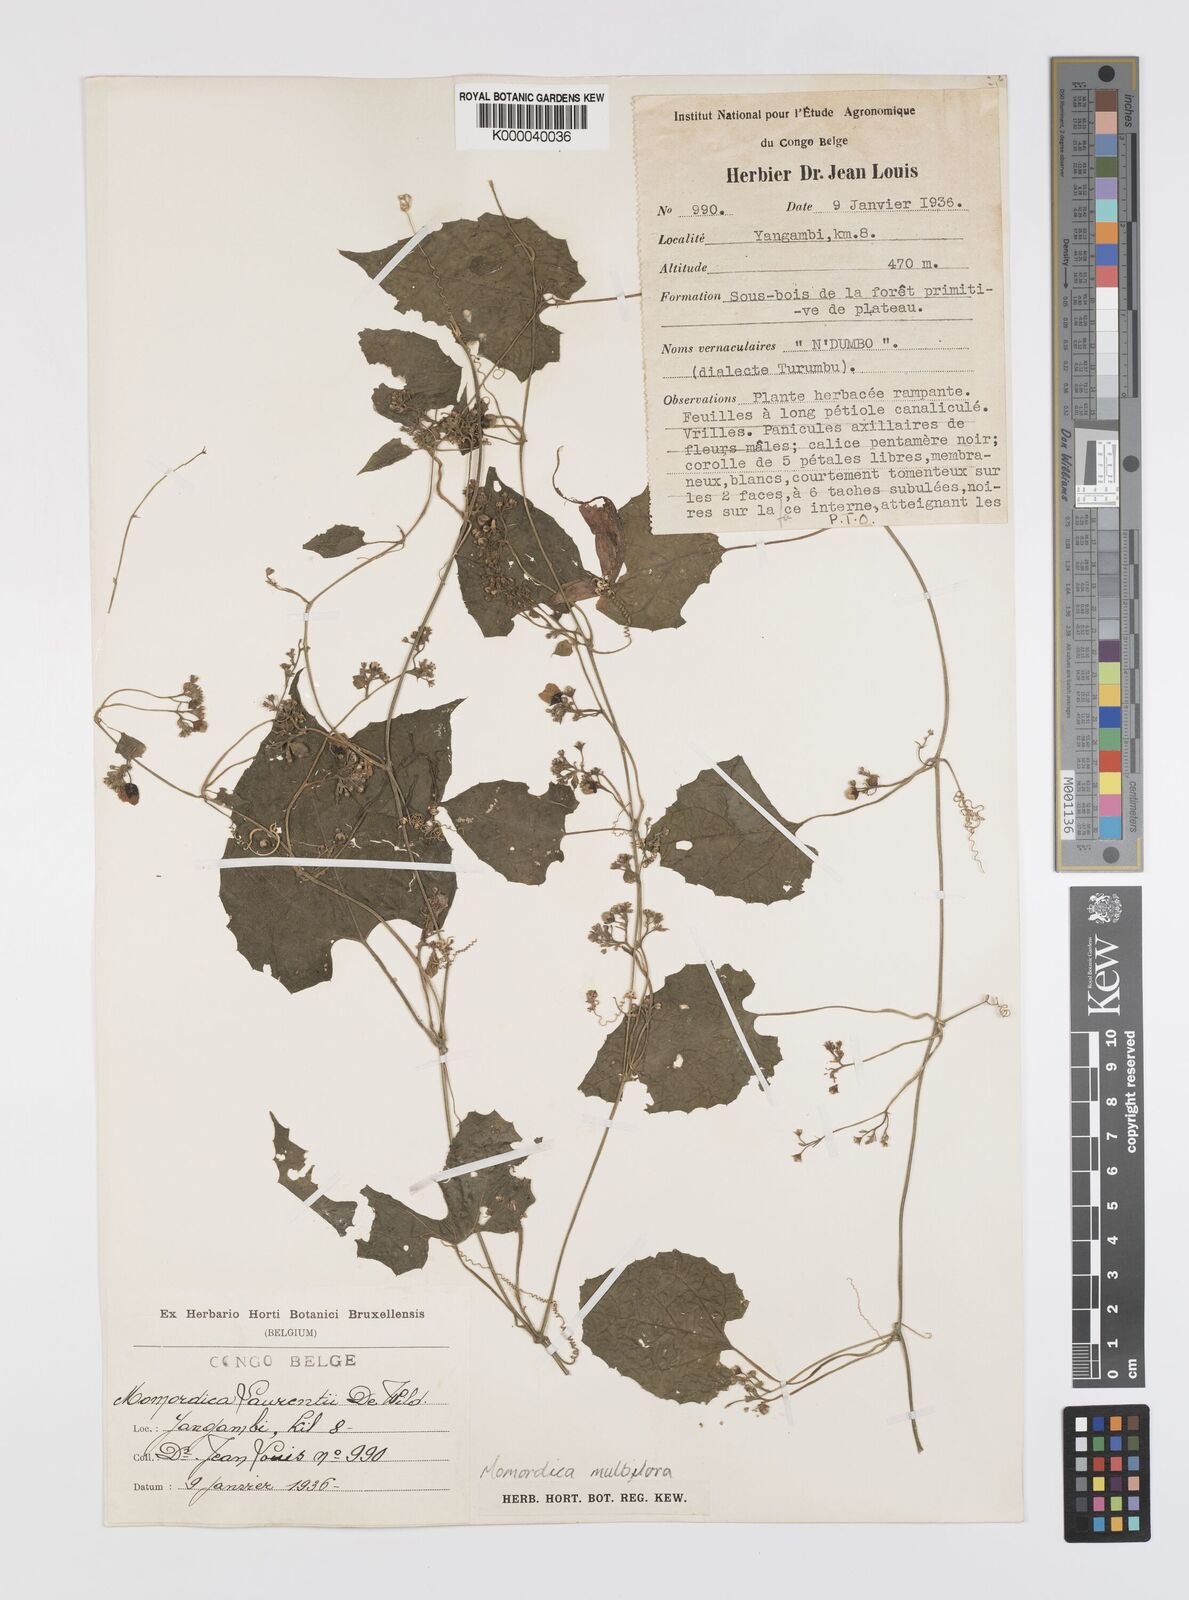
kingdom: Plantae
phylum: Tracheophyta
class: Magnoliopsida
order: Cucurbitales
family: Cucurbitaceae
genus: Momordica
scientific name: Momordica multiflora
